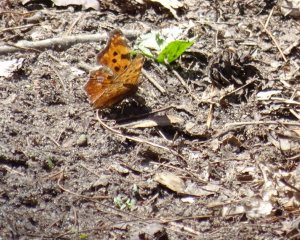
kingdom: Animalia
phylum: Arthropoda
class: Insecta
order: Lepidoptera
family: Nymphalidae
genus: Polygonia
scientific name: Polygonia comma
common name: Eastern Comma
